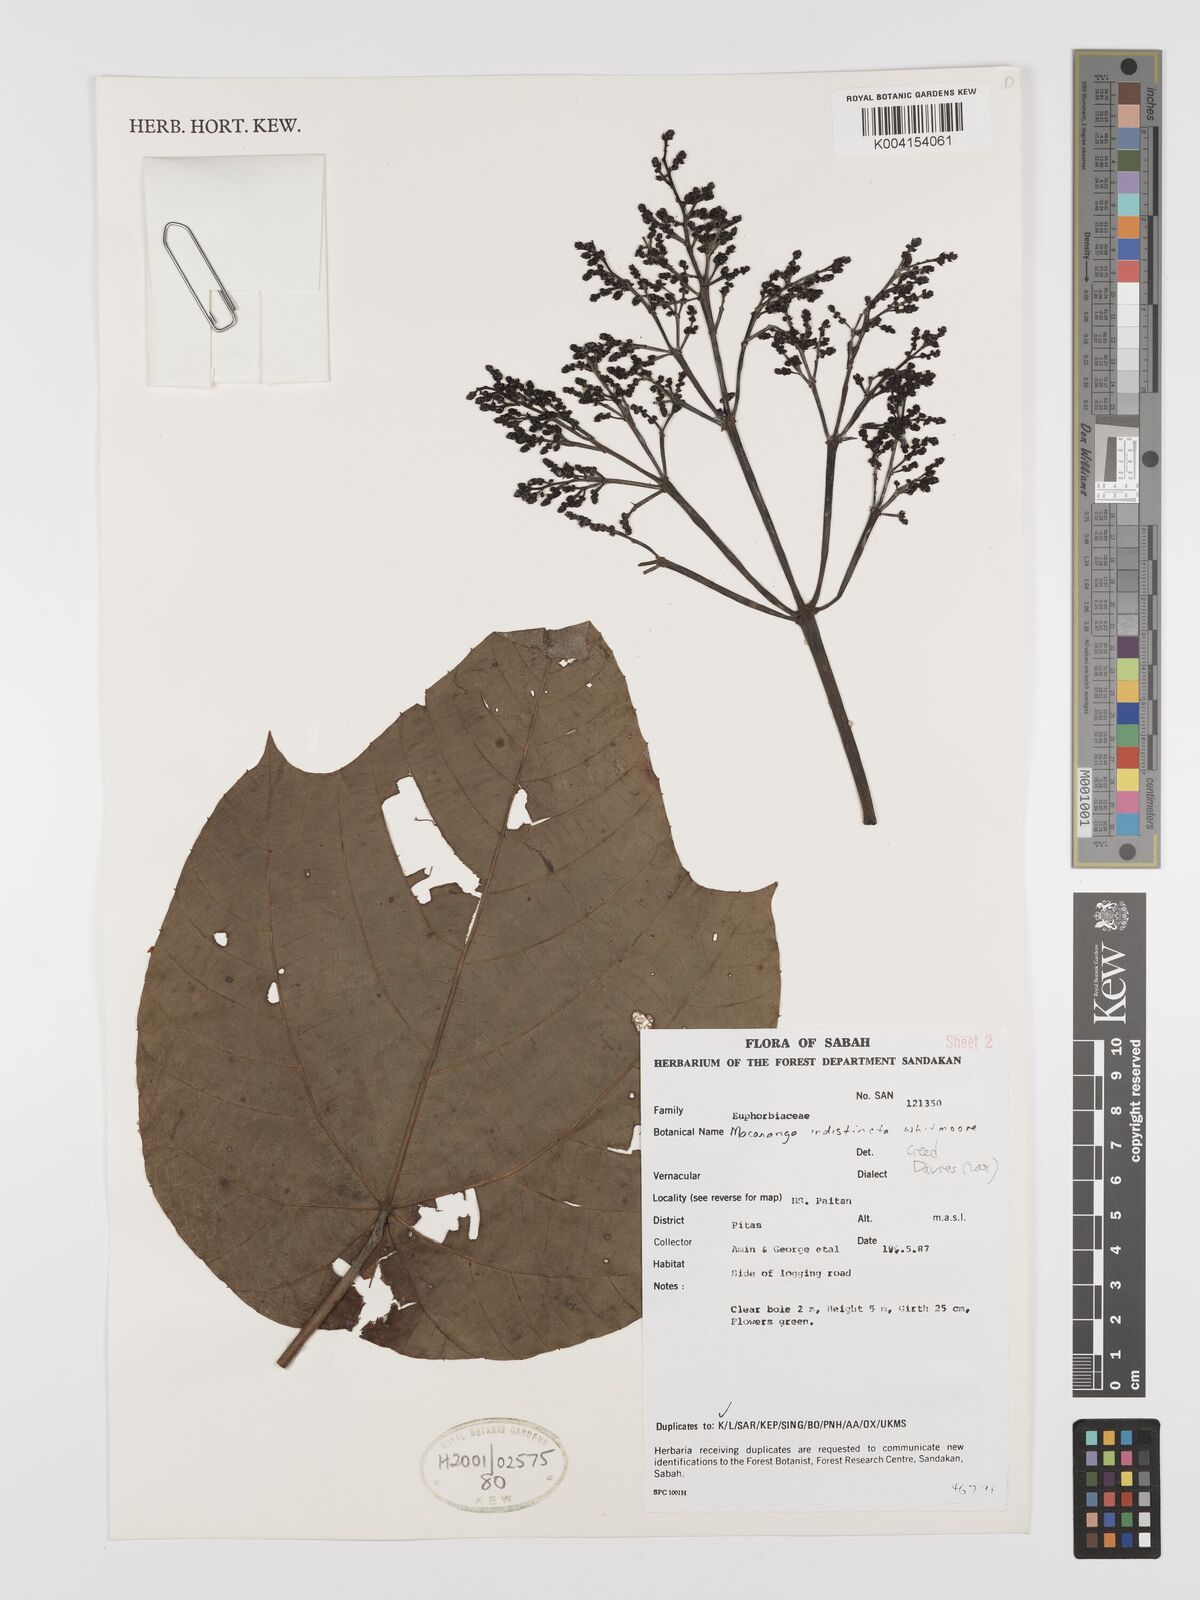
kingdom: Plantae
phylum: Tracheophyta
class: Magnoliopsida
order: Malpighiales
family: Euphorbiaceae
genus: Macaranga
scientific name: Macaranga indistincta
